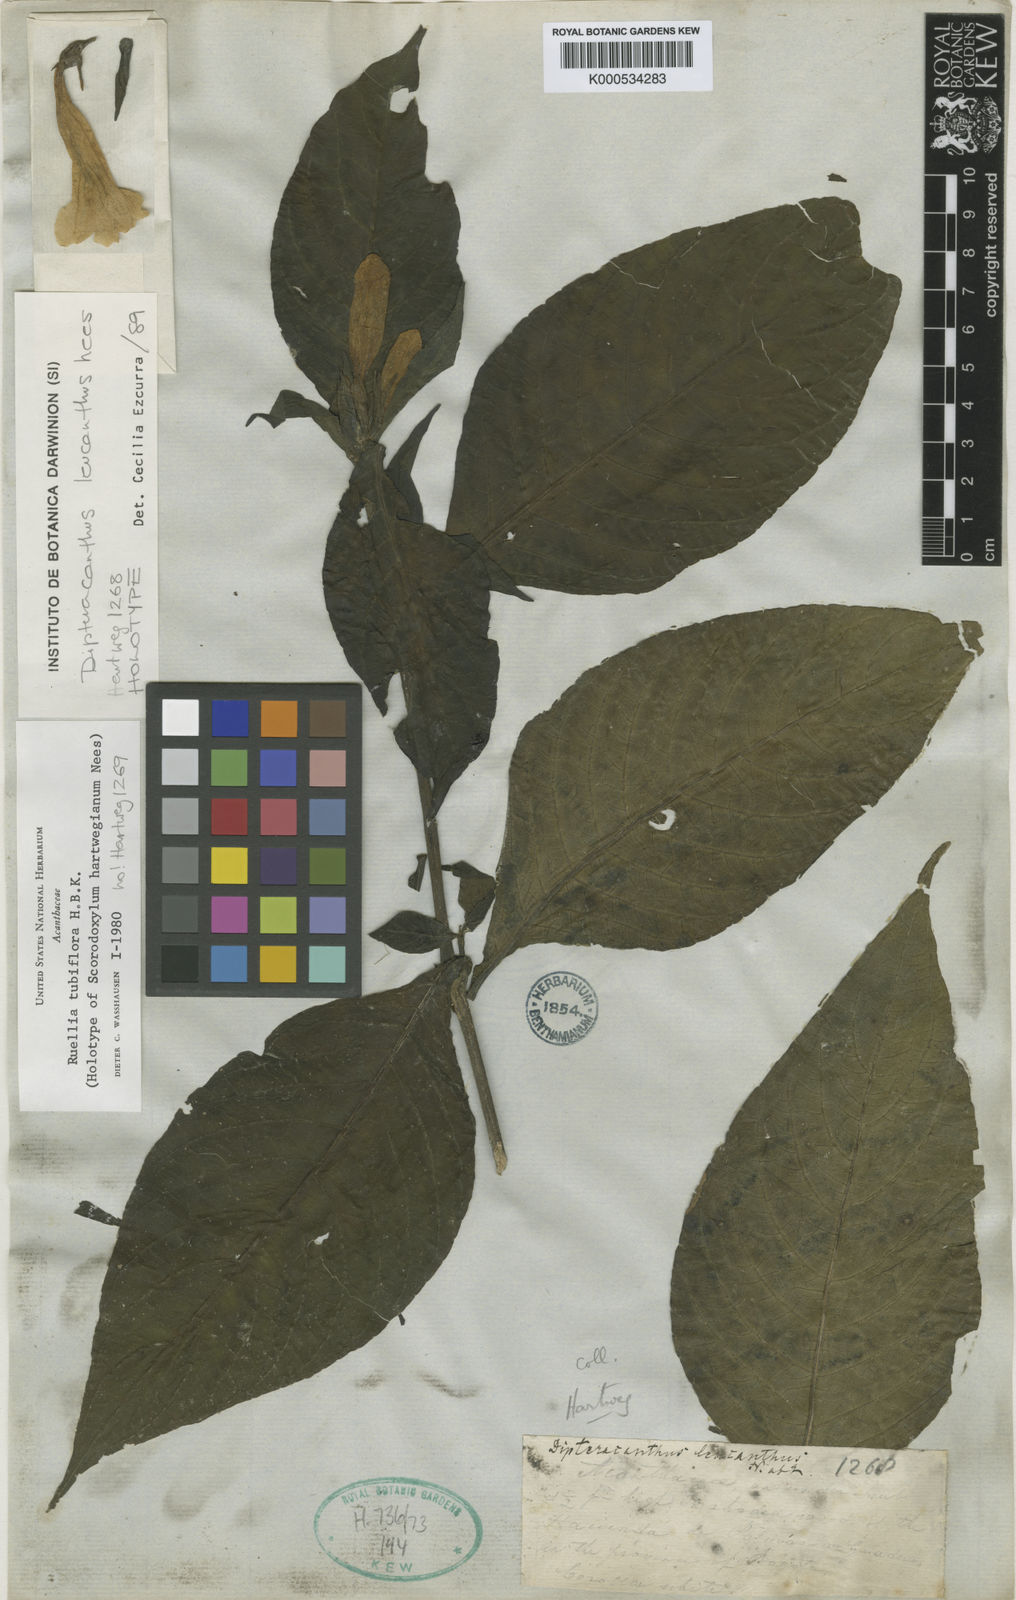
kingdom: Plantae
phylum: Tracheophyta
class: Magnoliopsida
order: Lamiales
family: Acanthaceae
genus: Ruellia
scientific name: Ruellia
